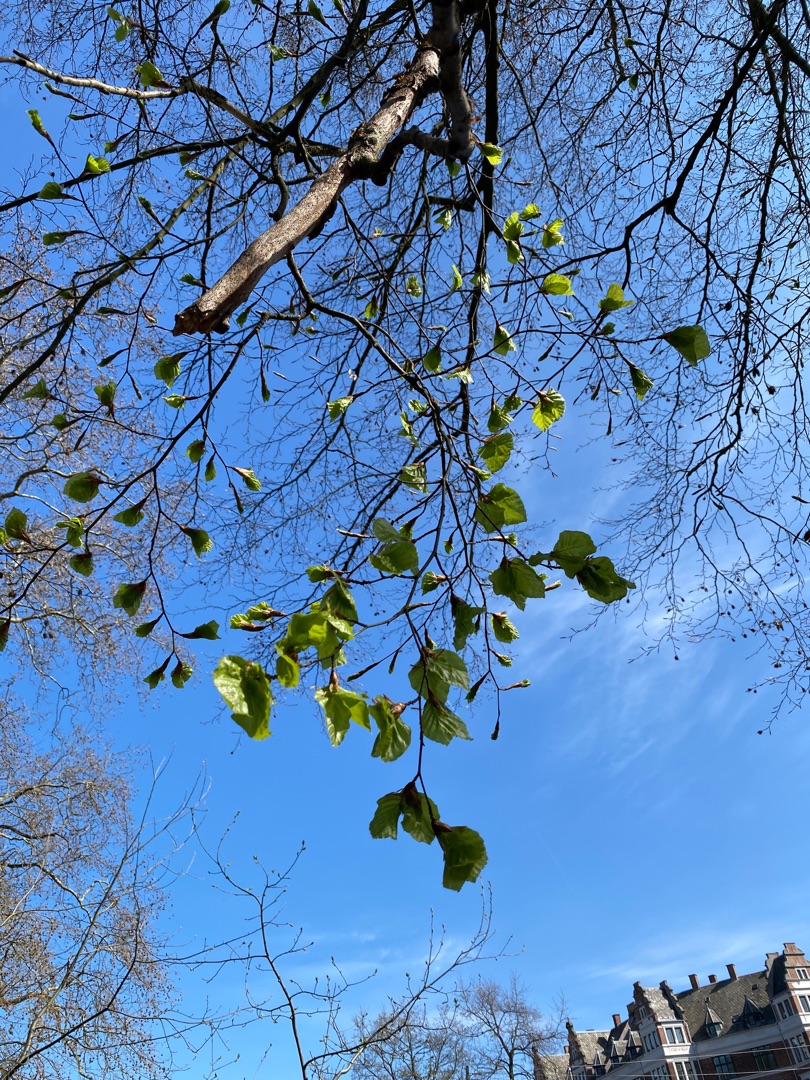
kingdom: Plantae
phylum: Tracheophyta
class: Magnoliopsida
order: Fagales
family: Fagaceae
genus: Fagus
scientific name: Fagus sylvatica
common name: Bøg
